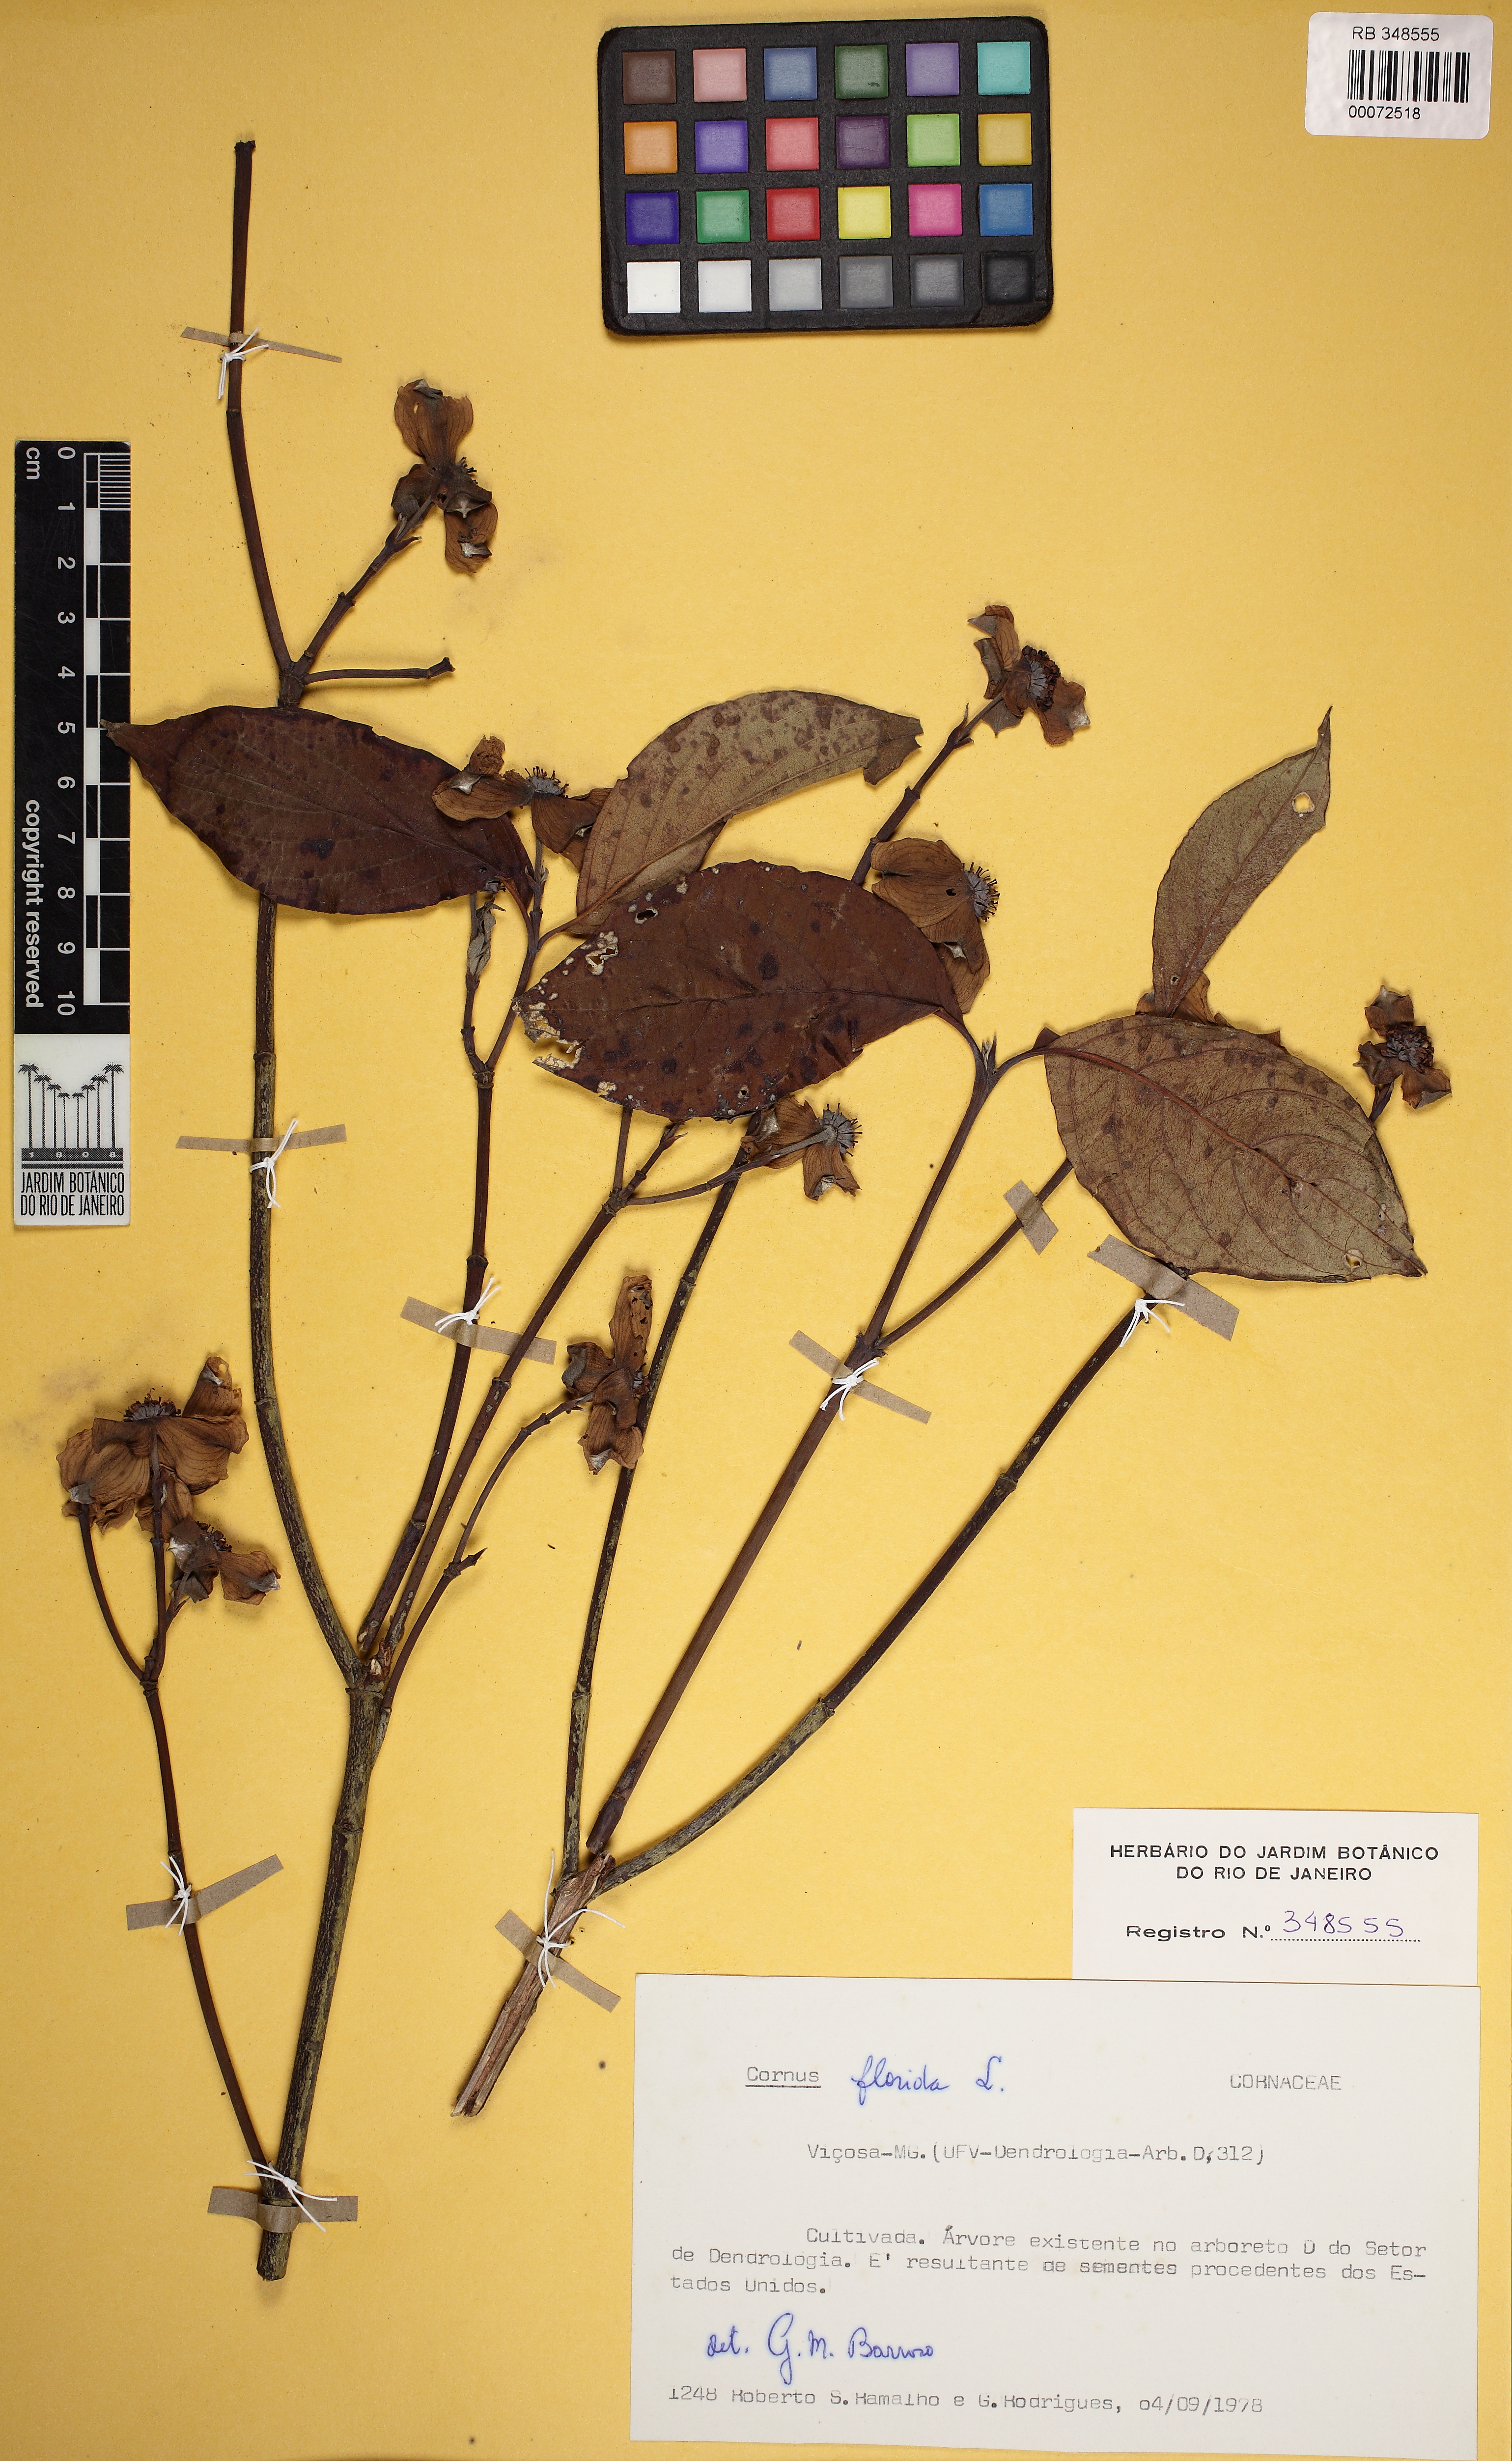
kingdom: Plantae
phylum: Tracheophyta
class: Magnoliopsida
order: Cornales
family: Cornaceae
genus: Cornus
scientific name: Cornus florida
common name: Flowering dogwood
